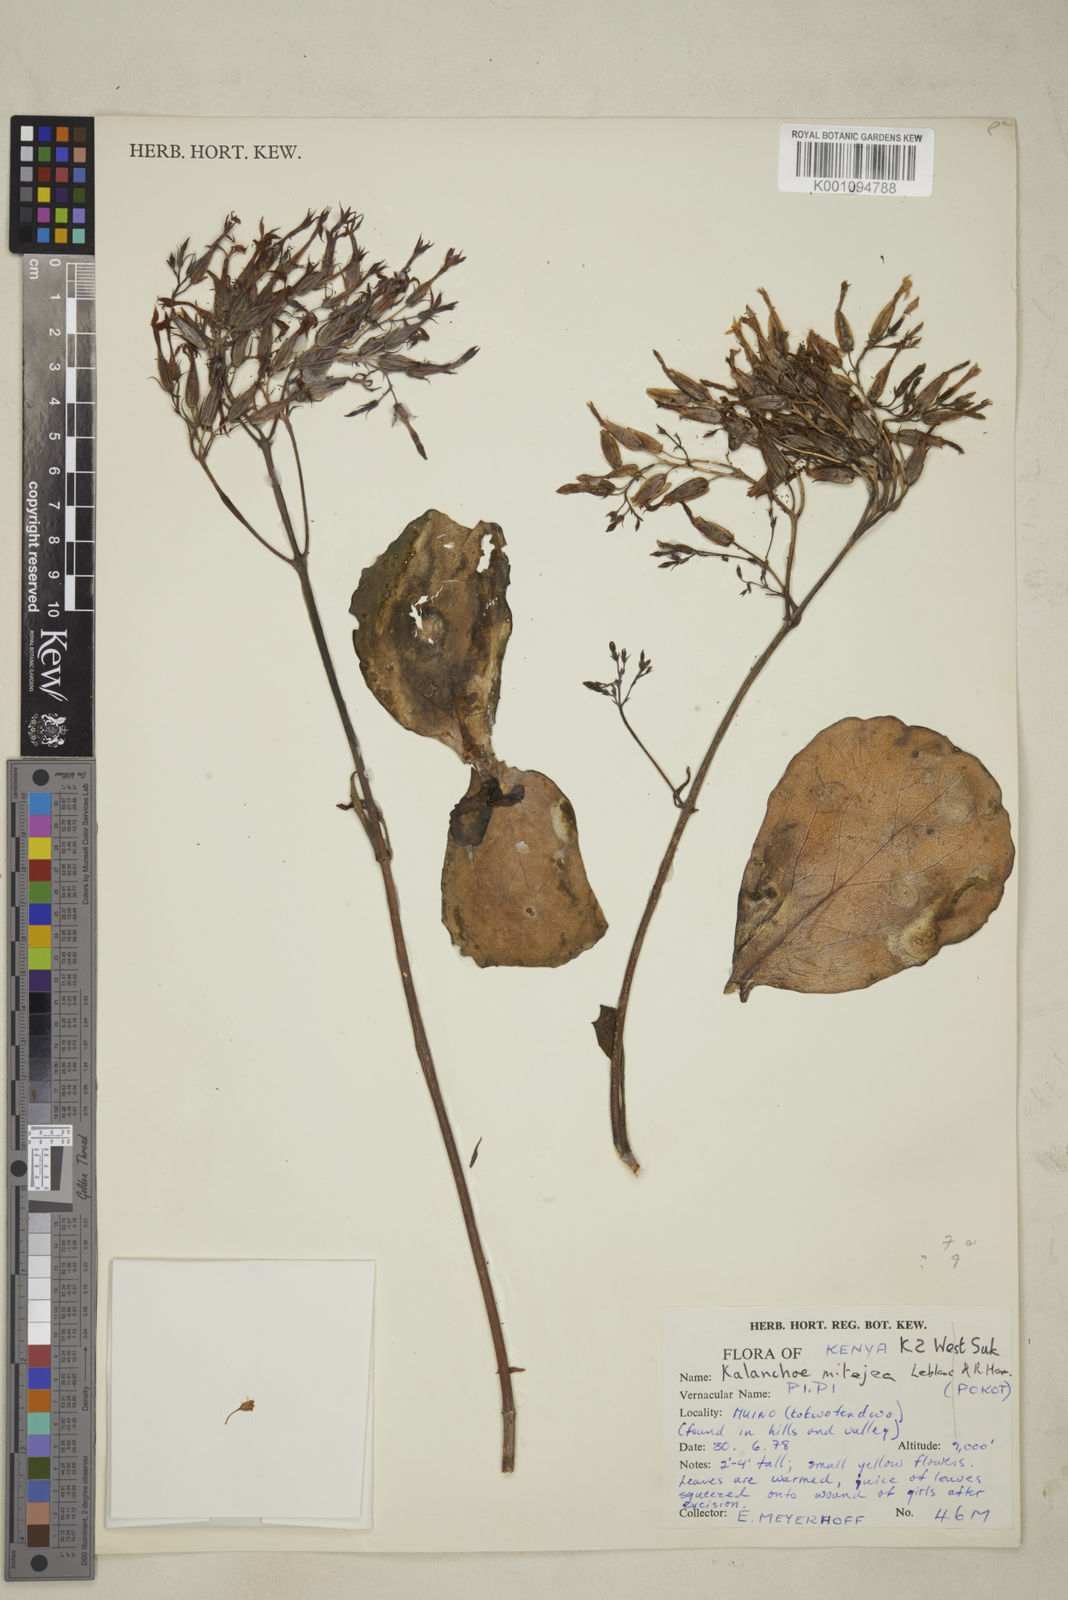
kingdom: Plantae
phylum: Tracheophyta
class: Magnoliopsida
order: Saxifragales
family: Crassulaceae
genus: Kalanchoe
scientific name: Kalanchoe mitejea
